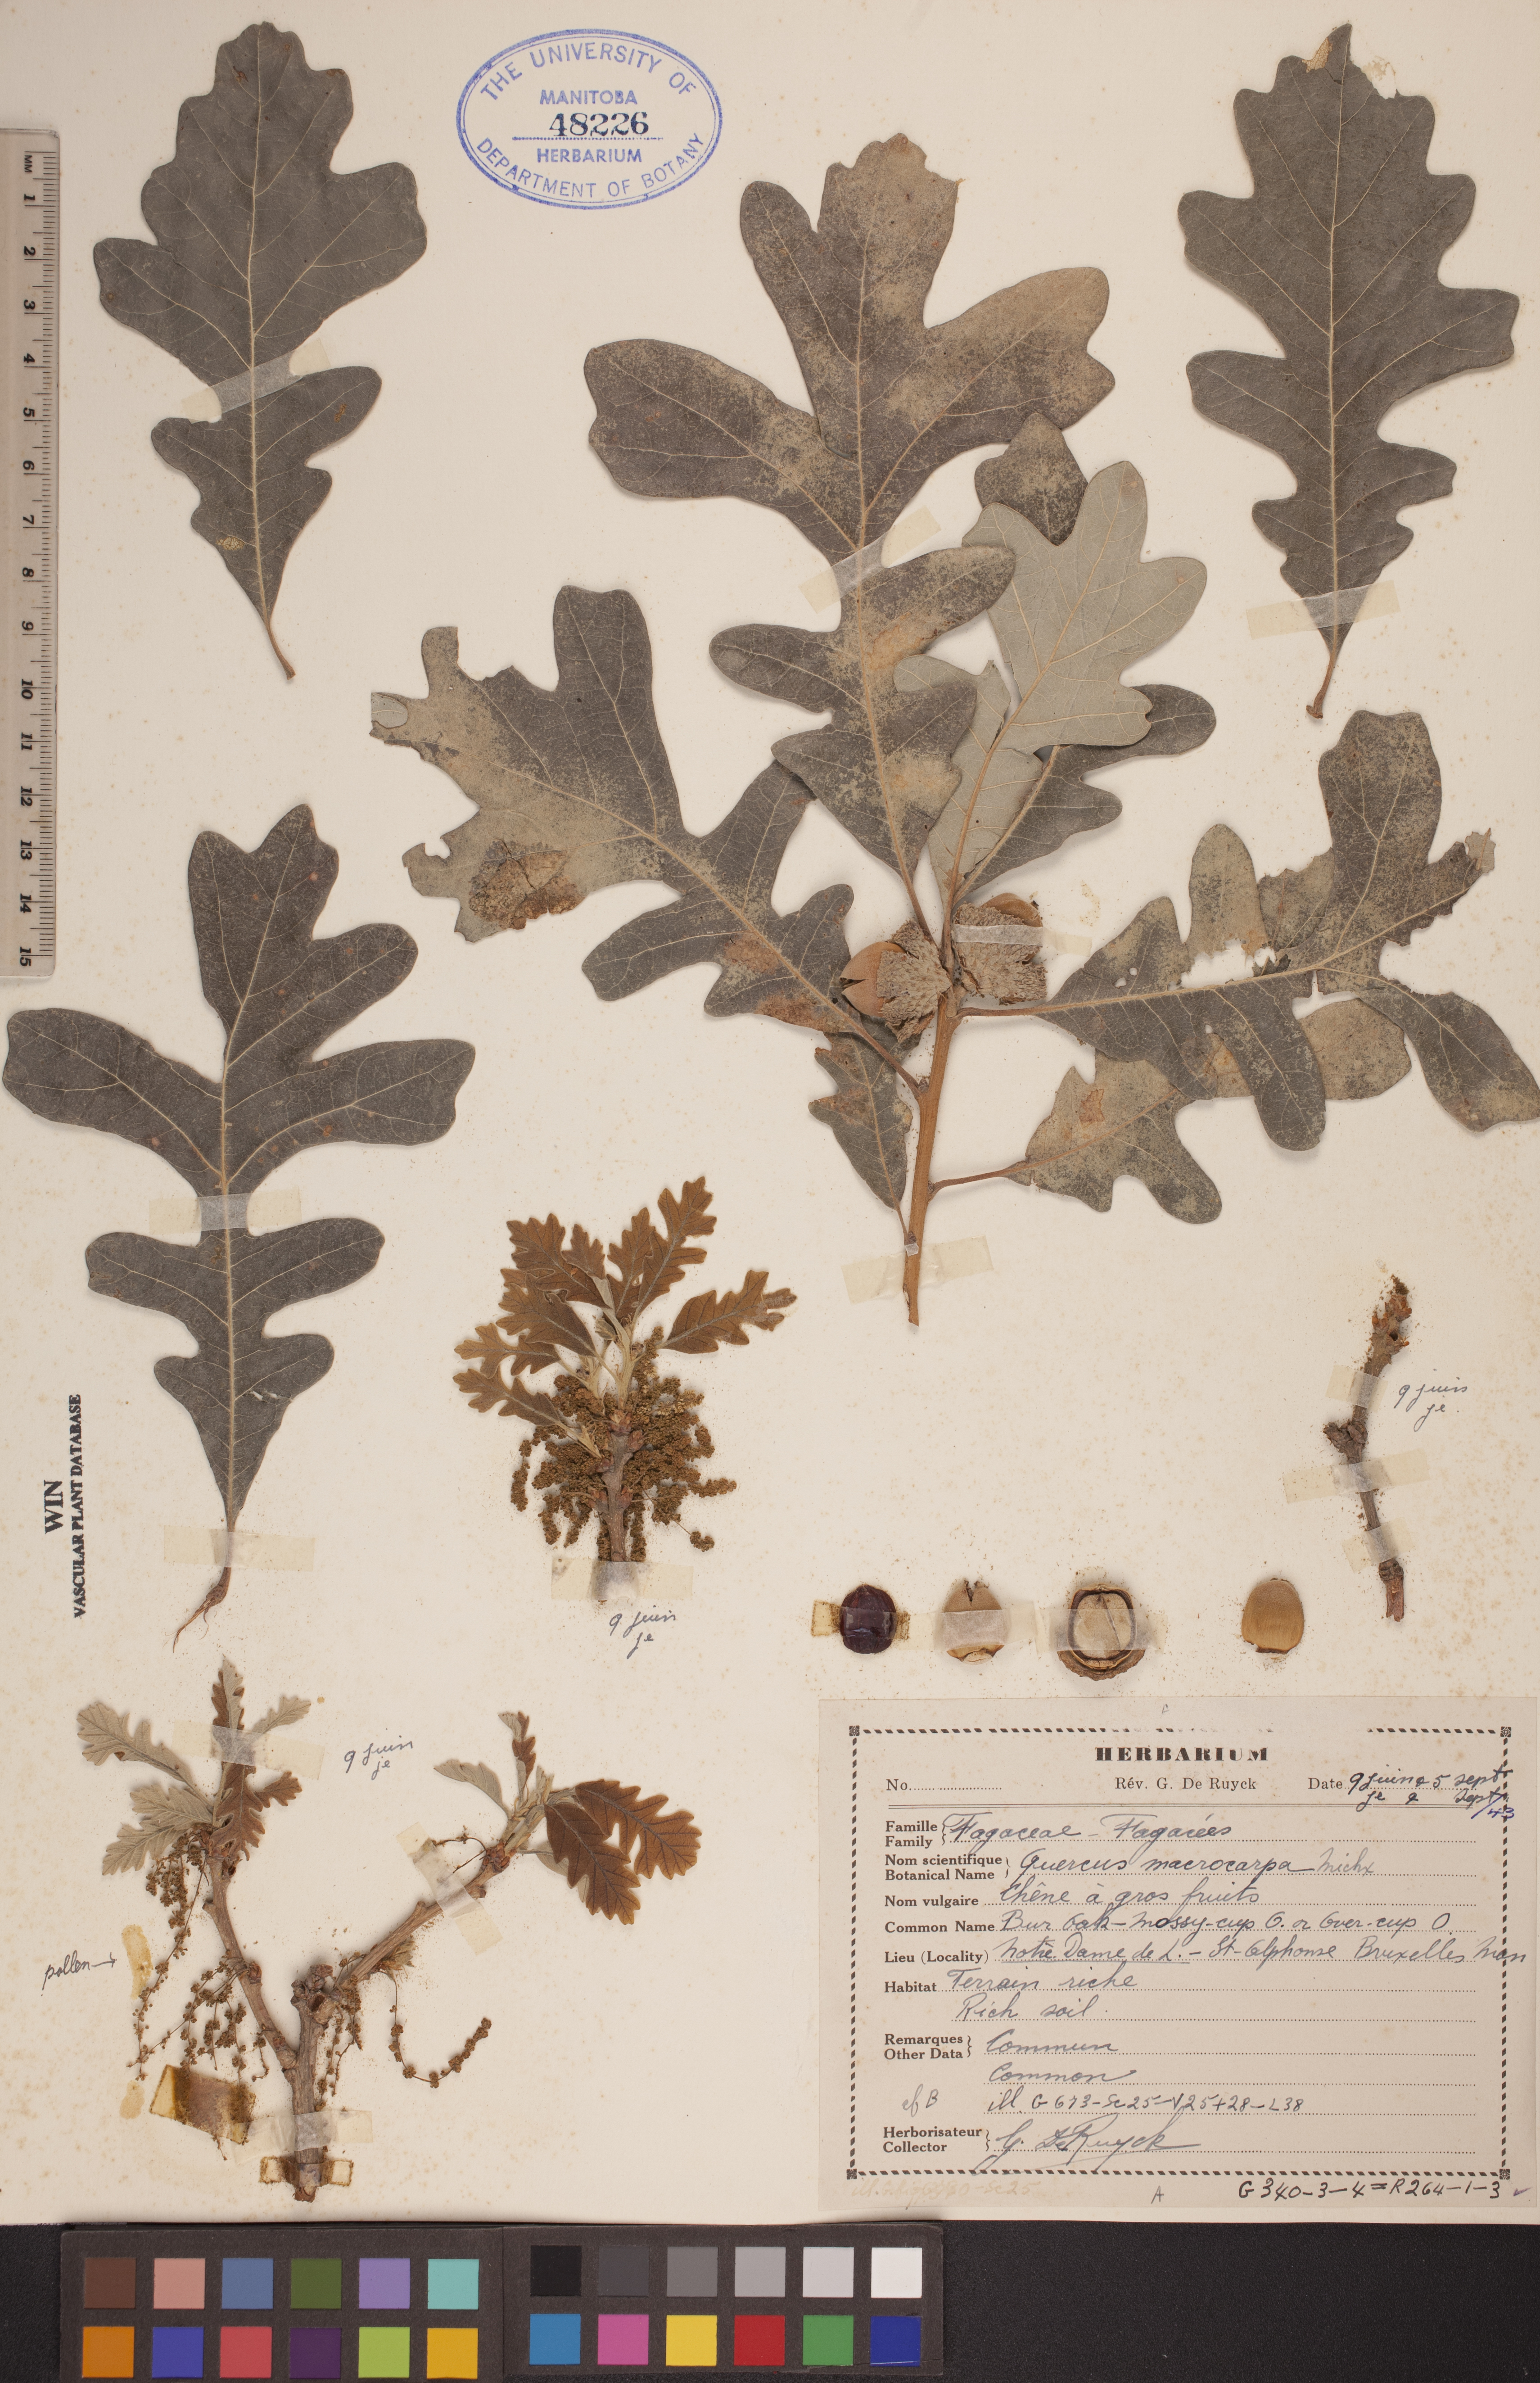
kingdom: Plantae
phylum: Tracheophyta
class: Magnoliopsida
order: Fagales
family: Fagaceae
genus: Quercus
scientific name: Quercus macrocarpa
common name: Bur oak
